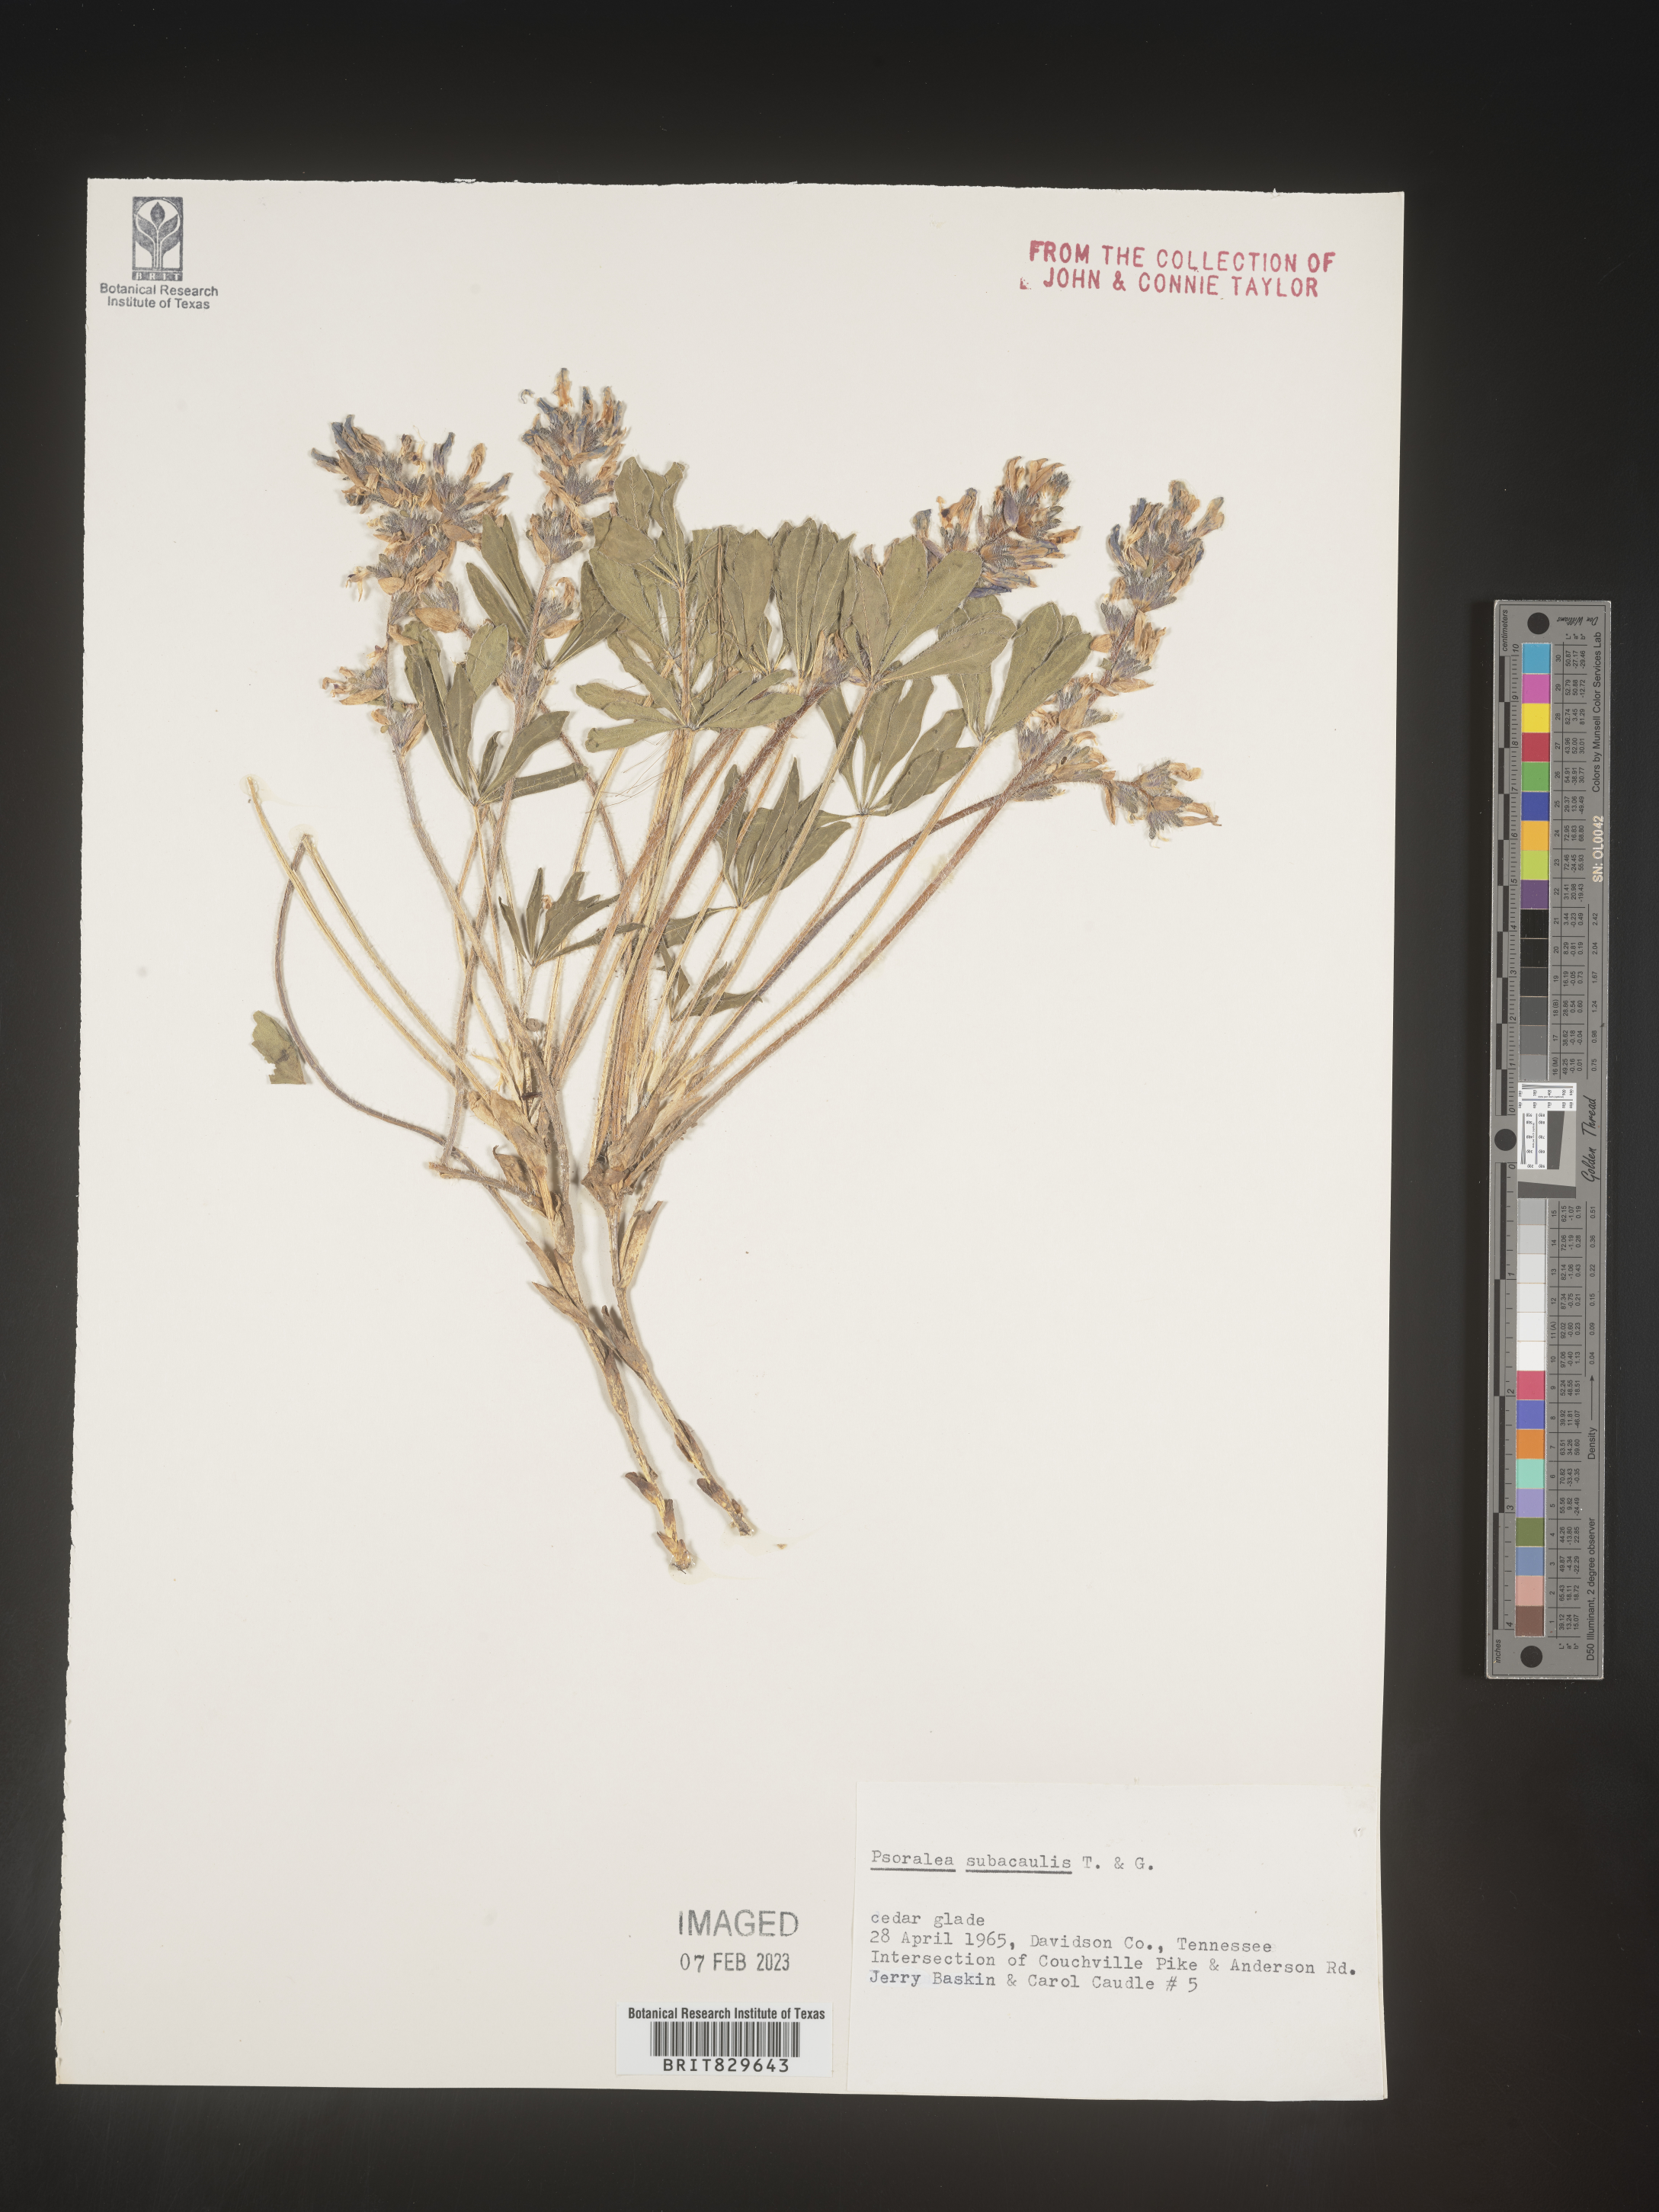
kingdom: Plantae
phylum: Tracheophyta
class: Magnoliopsida
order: Fabales
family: Fabaceae
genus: Psoralea
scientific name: Psoralea
